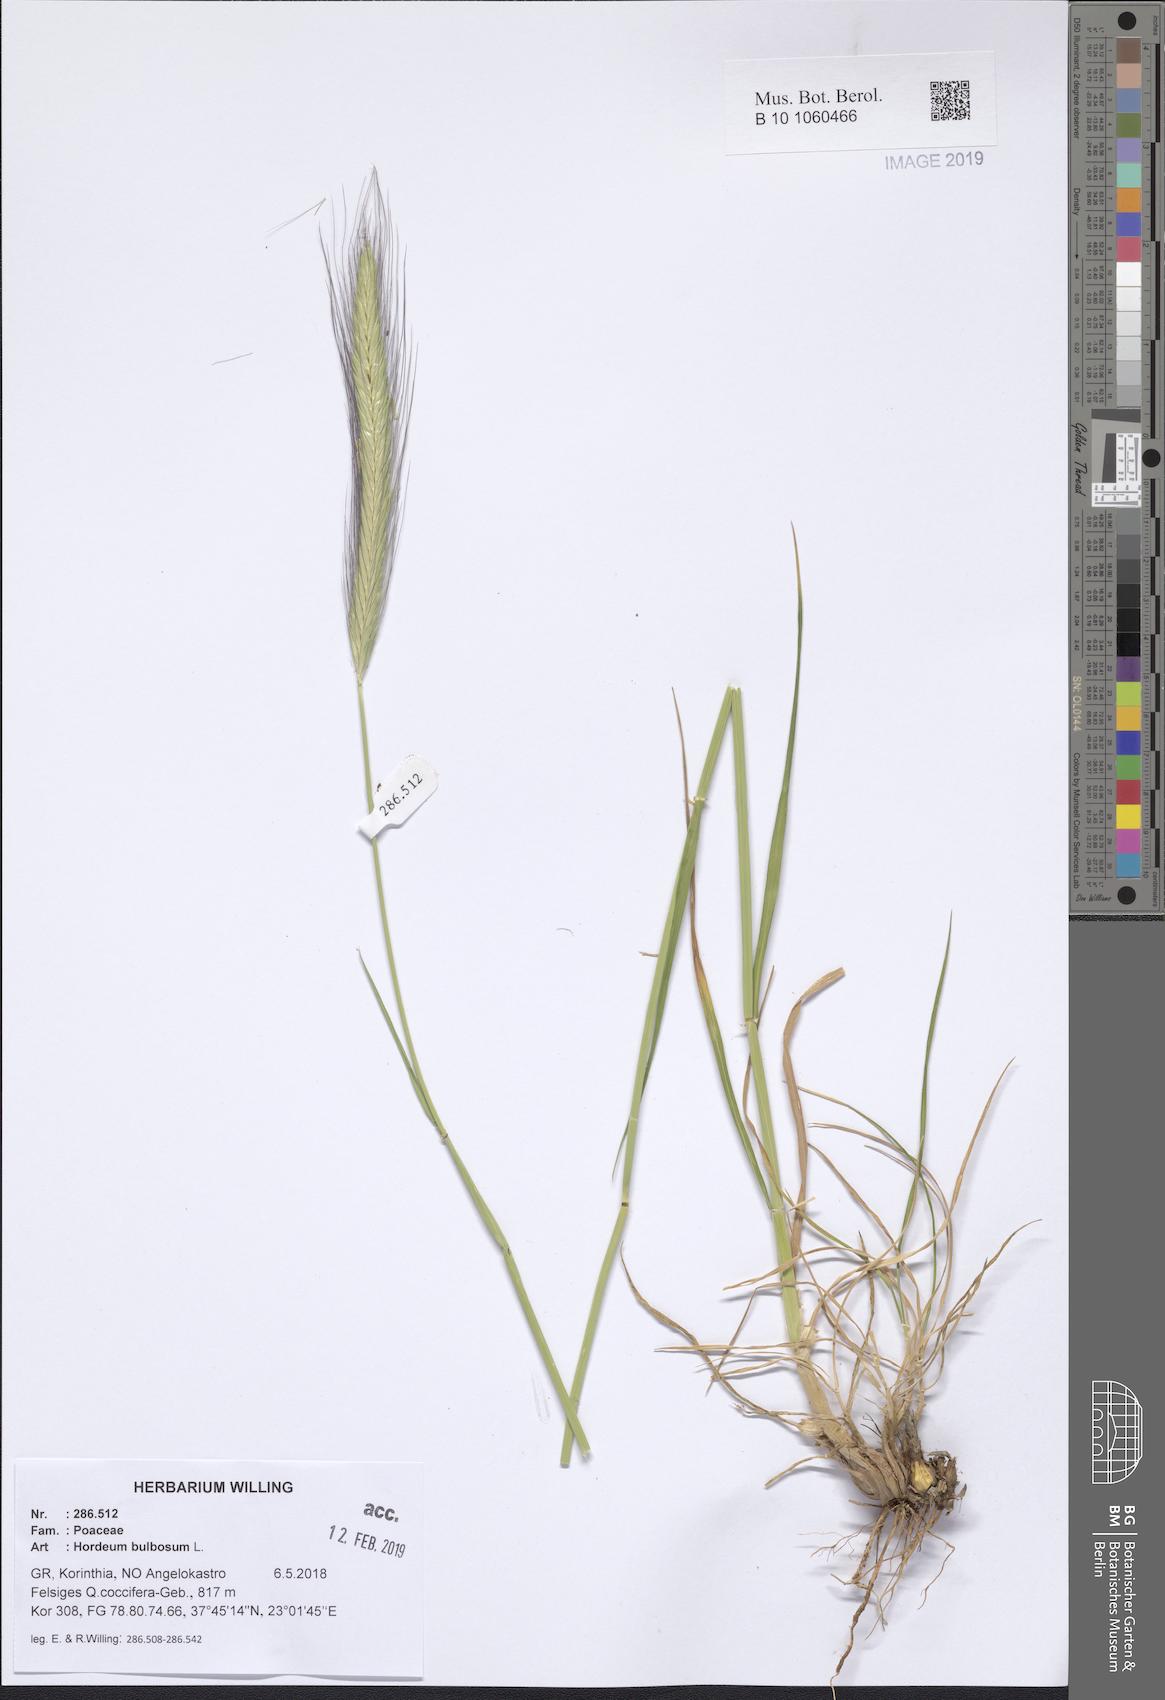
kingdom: Plantae
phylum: Tracheophyta
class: Liliopsida
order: Poales
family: Poaceae
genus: Hordeum
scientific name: Hordeum bulbosum
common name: Bulbous barley
